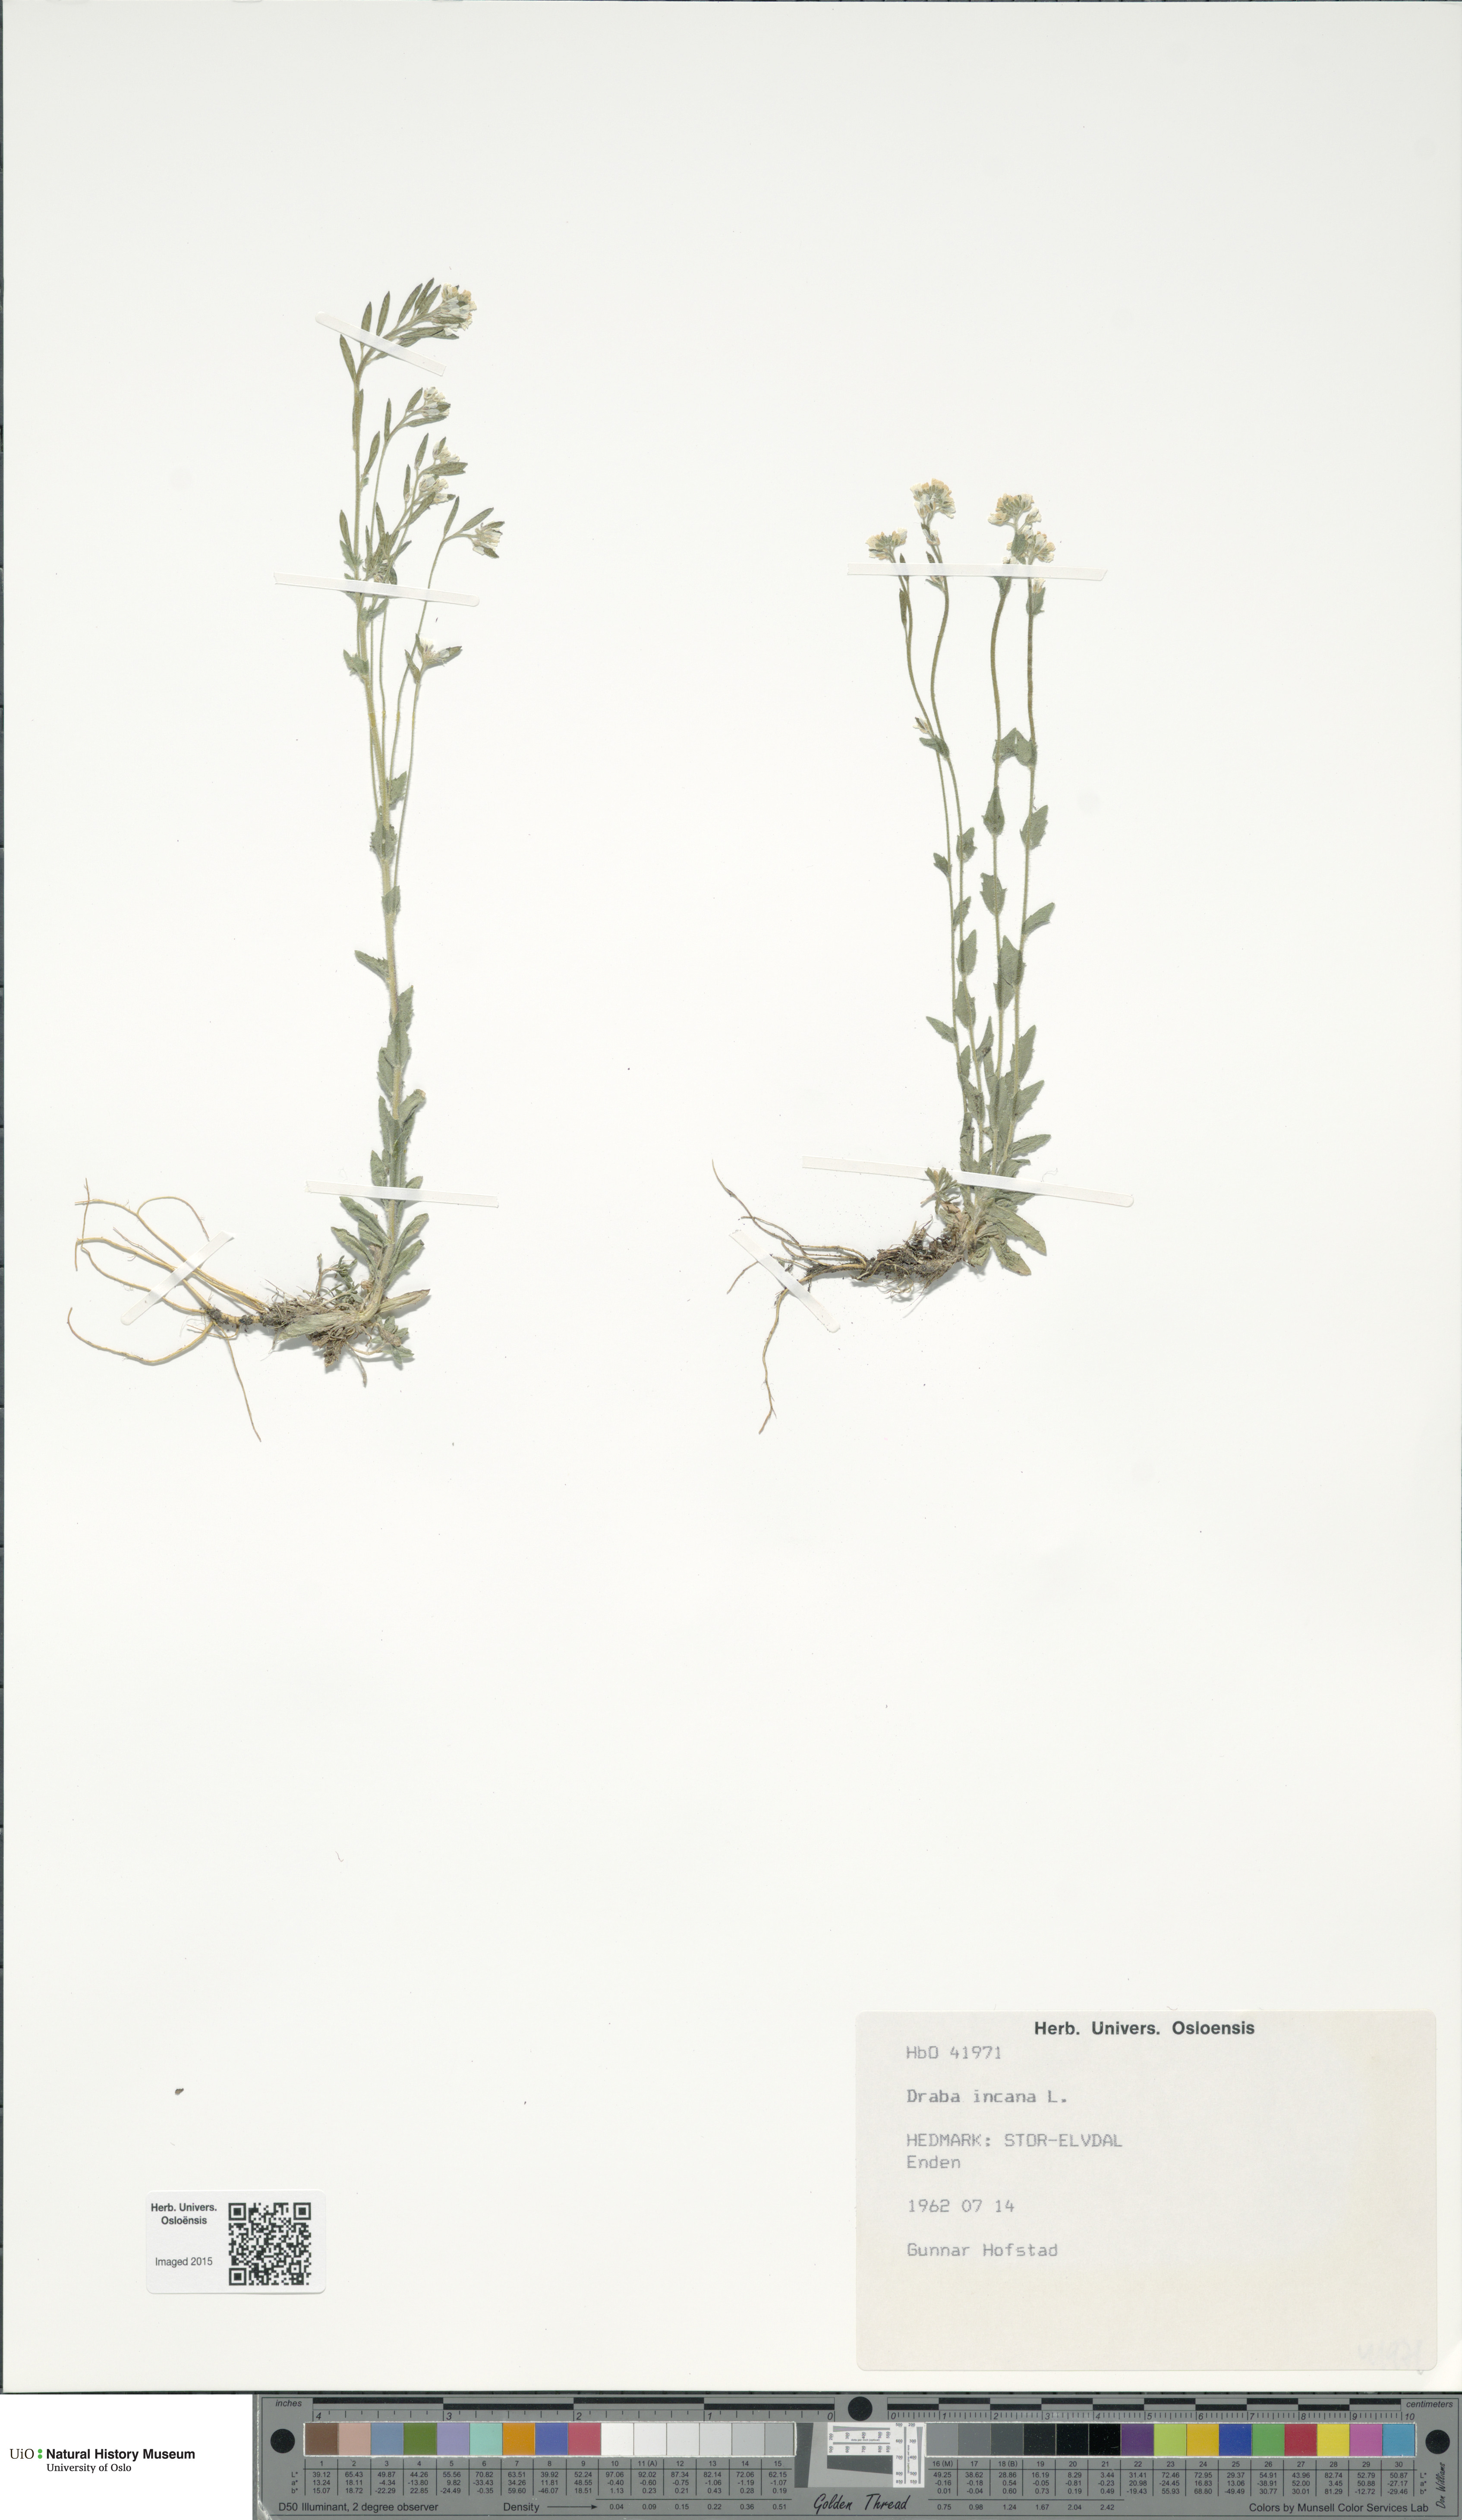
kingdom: Plantae
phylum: Tracheophyta
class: Magnoliopsida
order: Brassicales
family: Brassicaceae
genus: Draba
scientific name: Draba incana
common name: Hoary whitlow-grass
